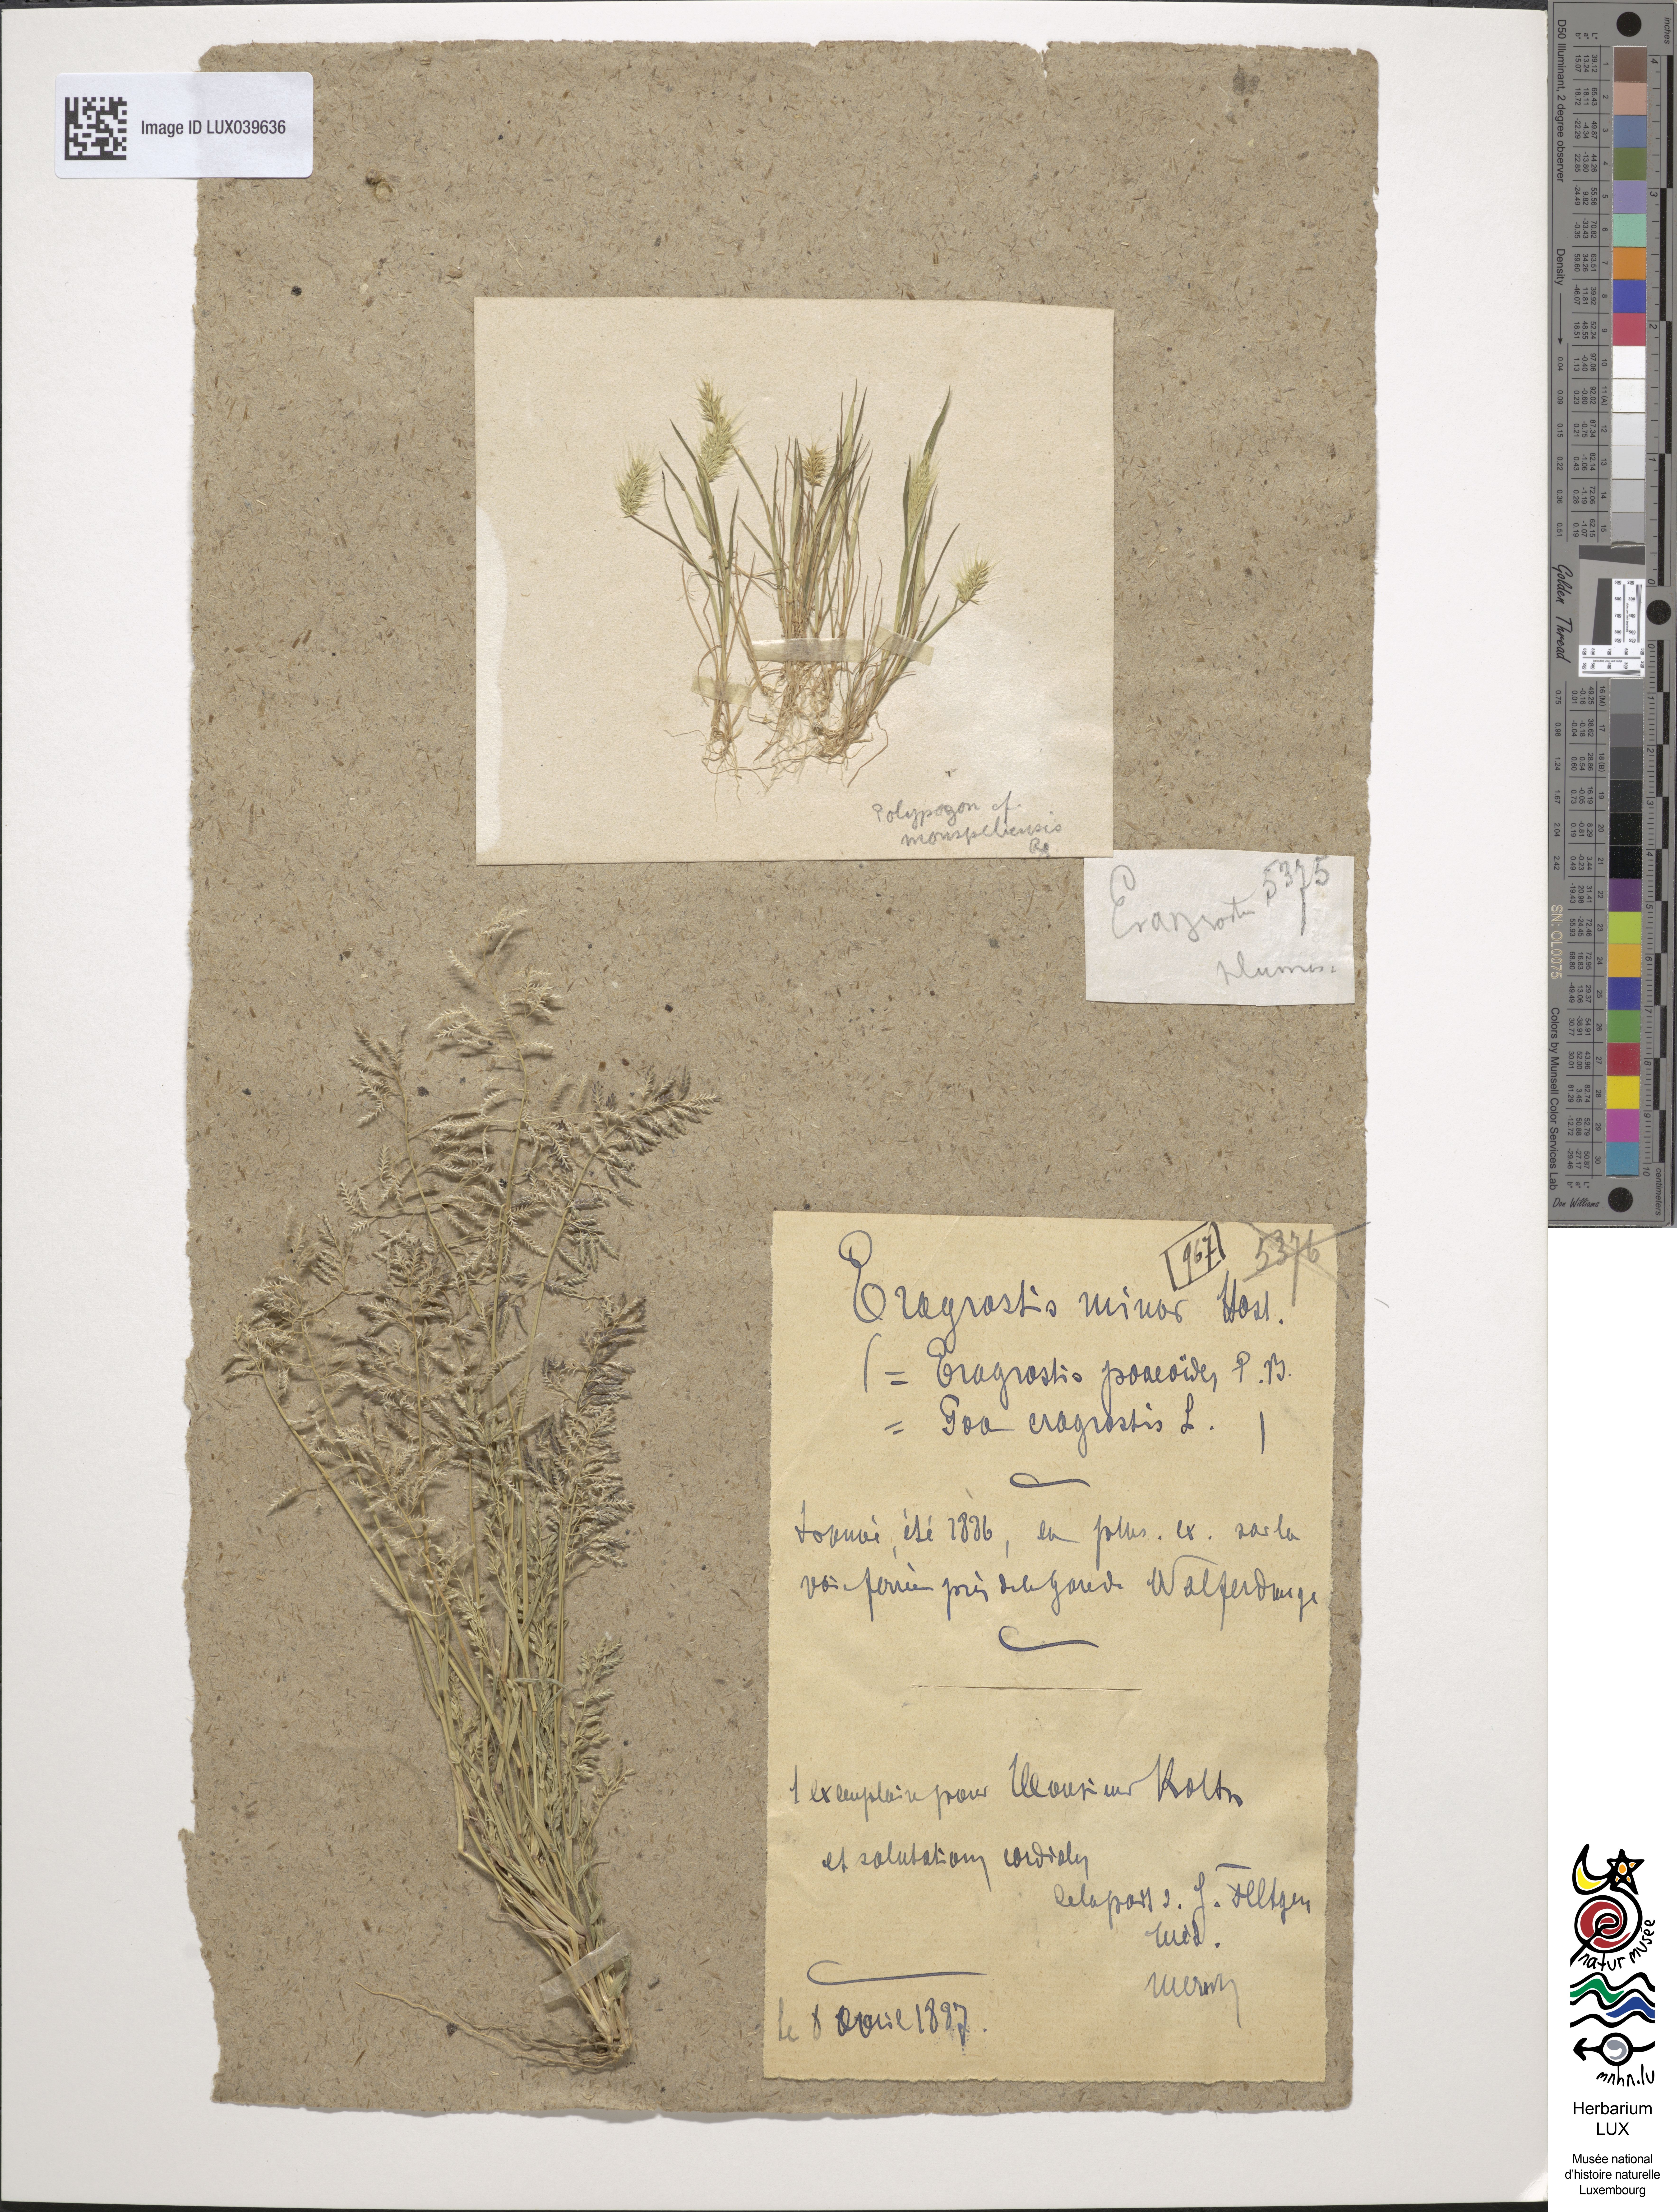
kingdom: Plantae
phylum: Tracheophyta
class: Liliopsida
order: Poales
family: Poaceae
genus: Eragrostis
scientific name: Eragrostis minor
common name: Small love-grass
